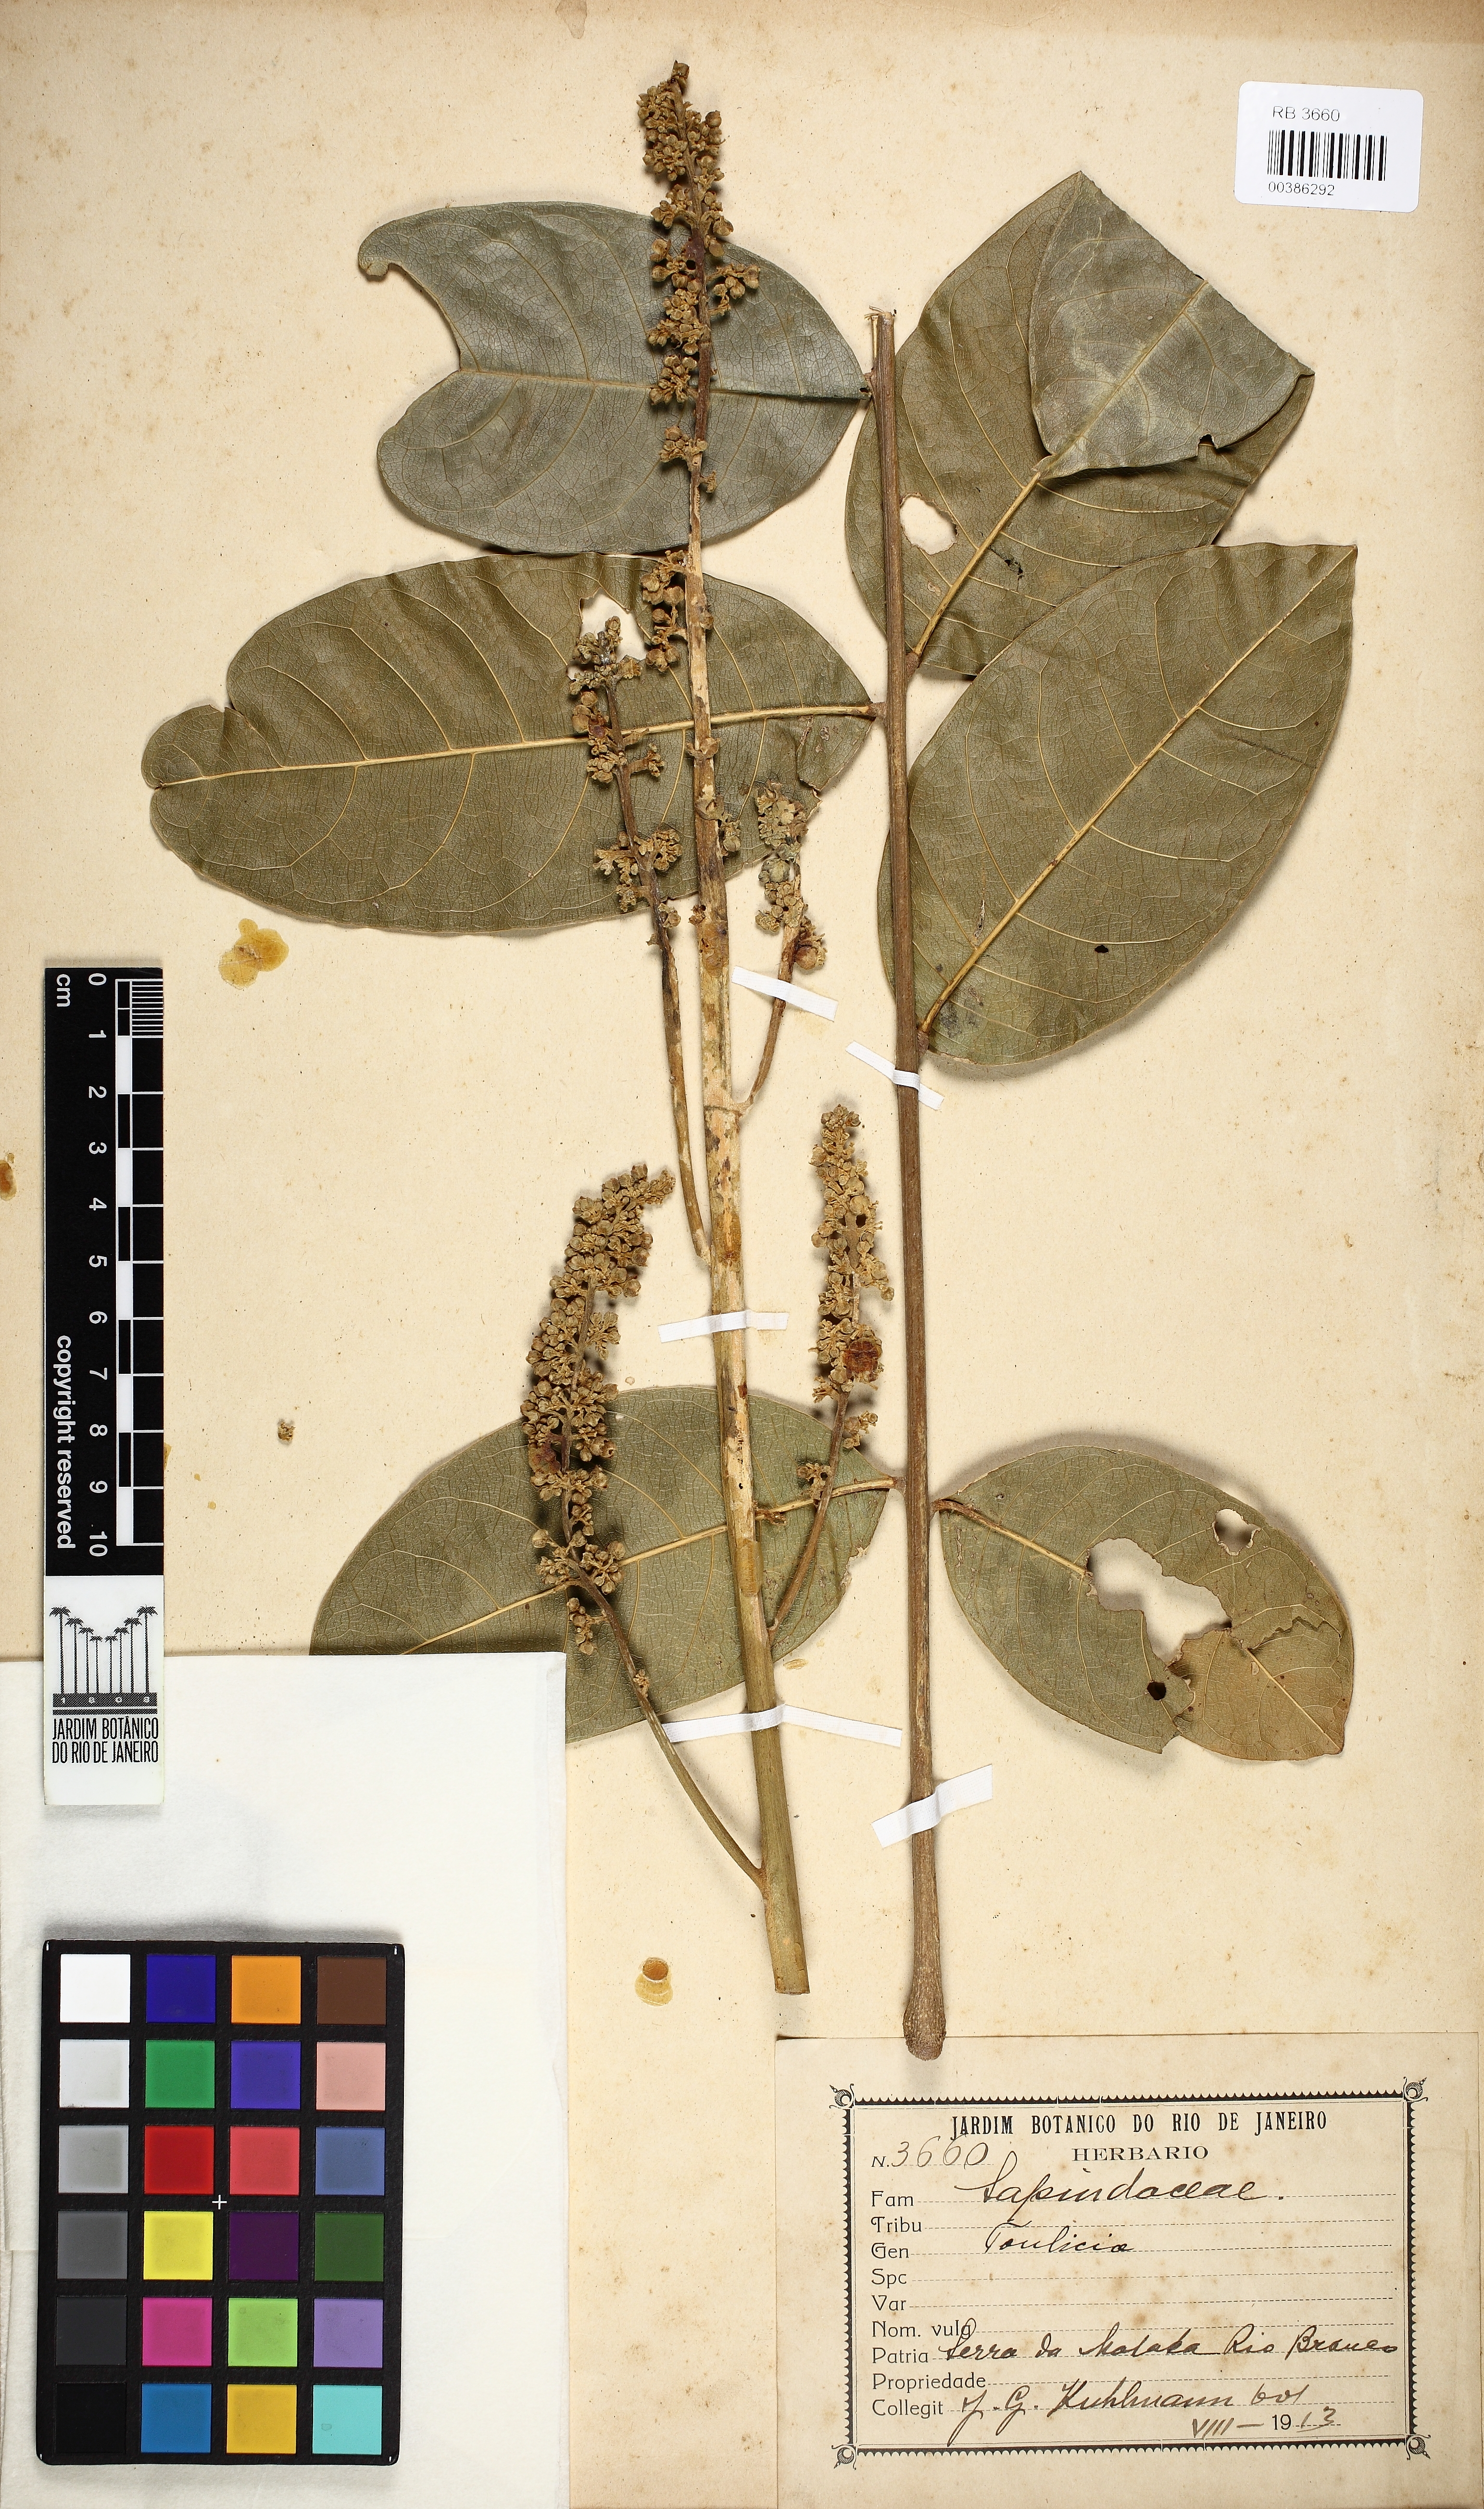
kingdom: Plantae
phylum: Tracheophyta
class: Magnoliopsida
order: Sapindales
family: Sapindaceae
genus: Toulicia
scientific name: Toulicia
